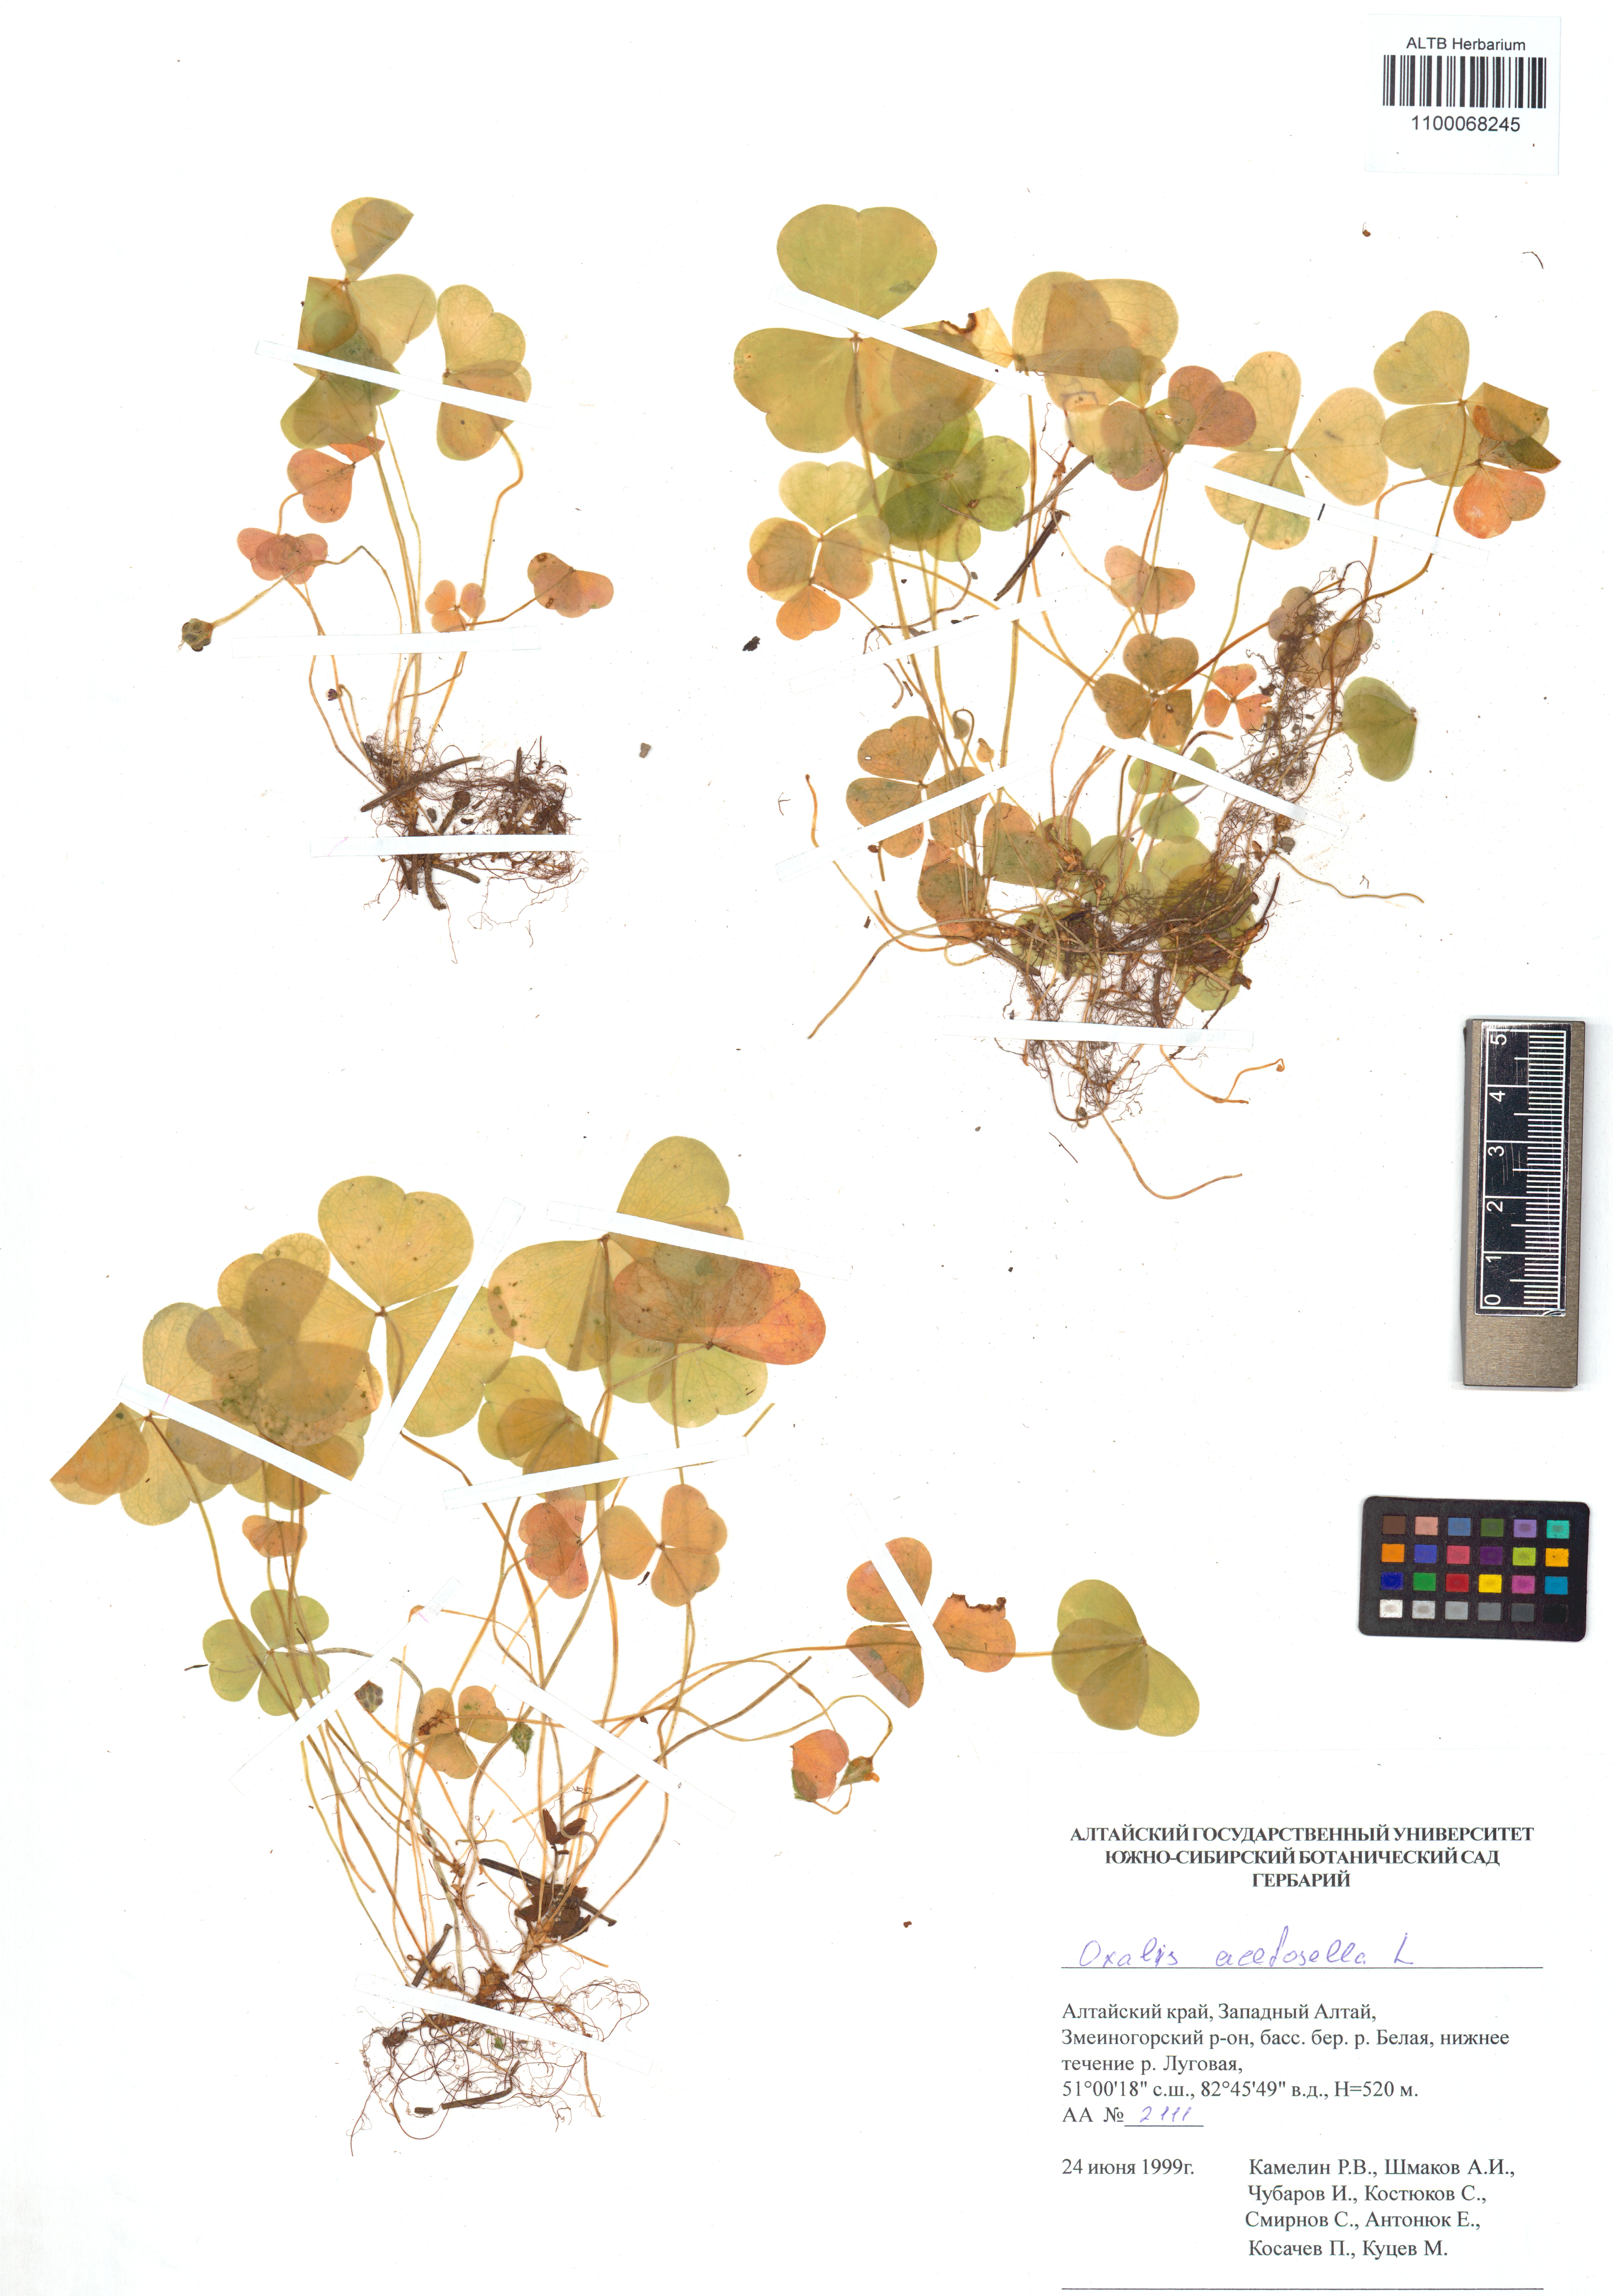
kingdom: Plantae
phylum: Tracheophyta
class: Magnoliopsida
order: Oxalidales
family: Oxalidaceae
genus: Oxalis
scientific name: Oxalis acetosella
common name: Wood-sorrel
